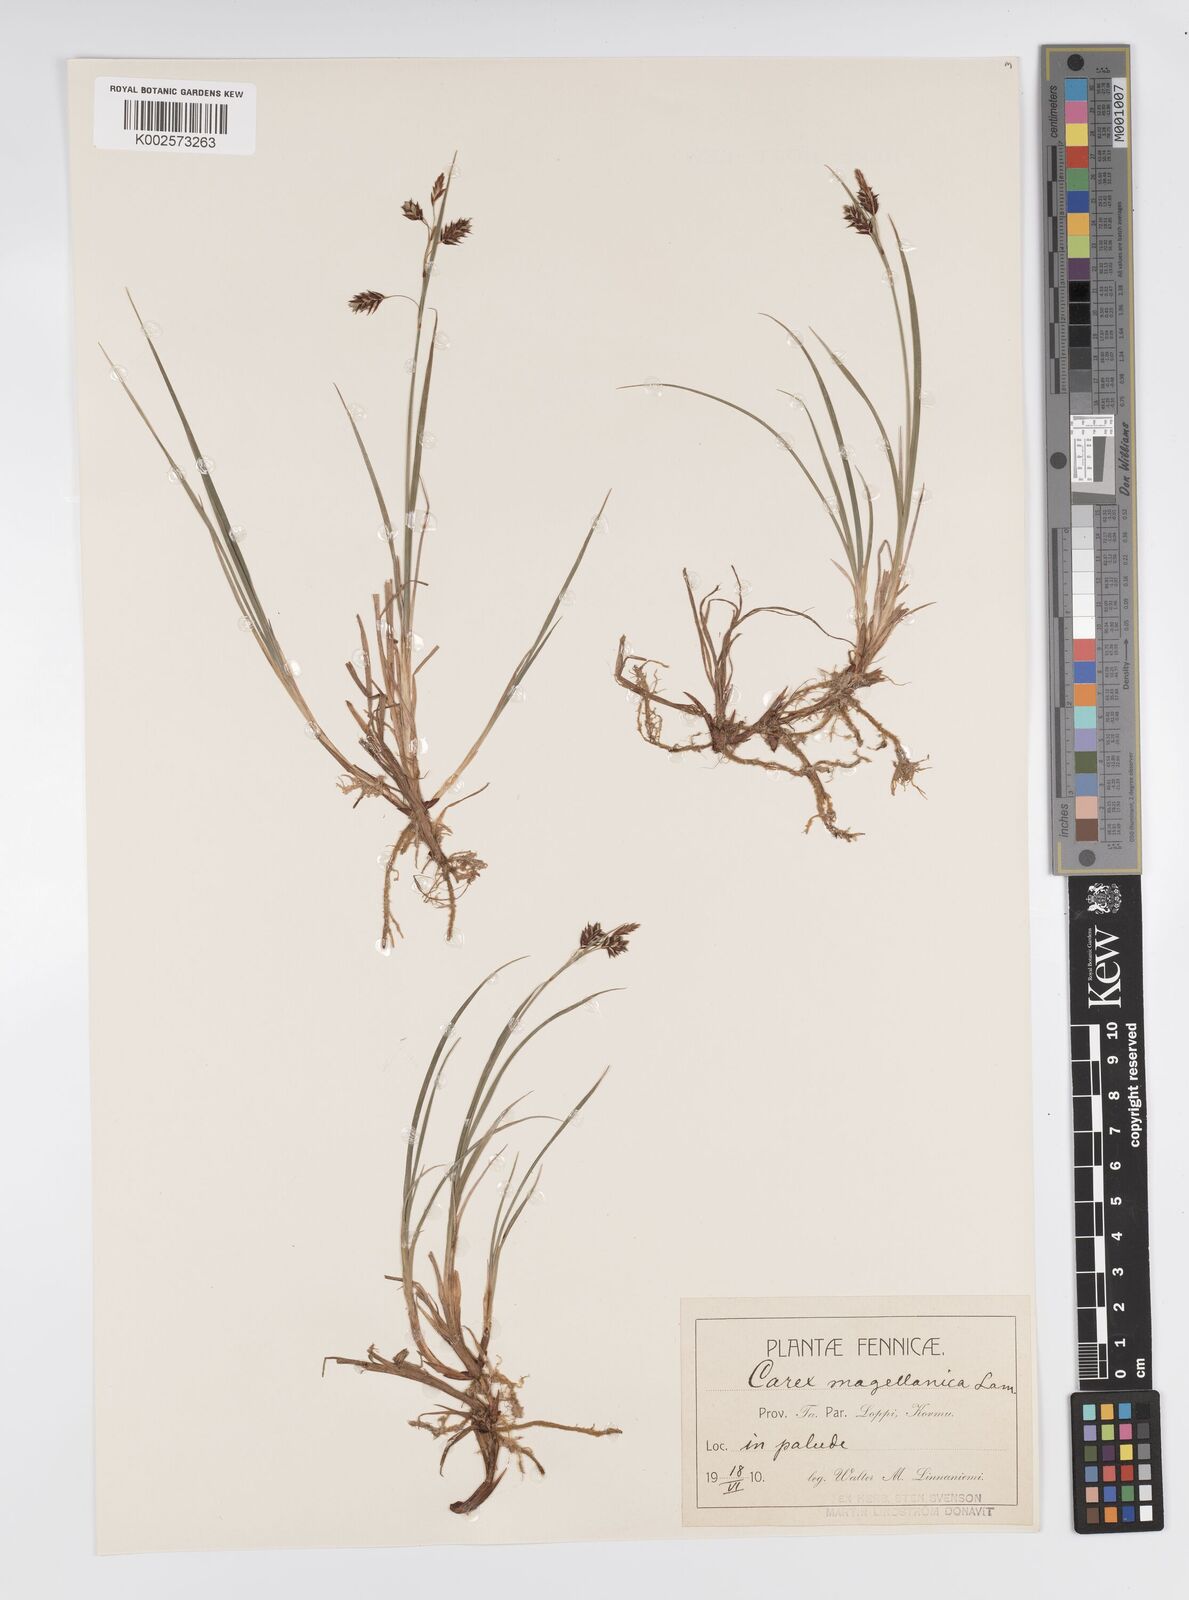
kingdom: Plantae
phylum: Tracheophyta
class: Liliopsida
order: Poales
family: Cyperaceae
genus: Carex
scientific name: Carex magellanica
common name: Bog sedge
